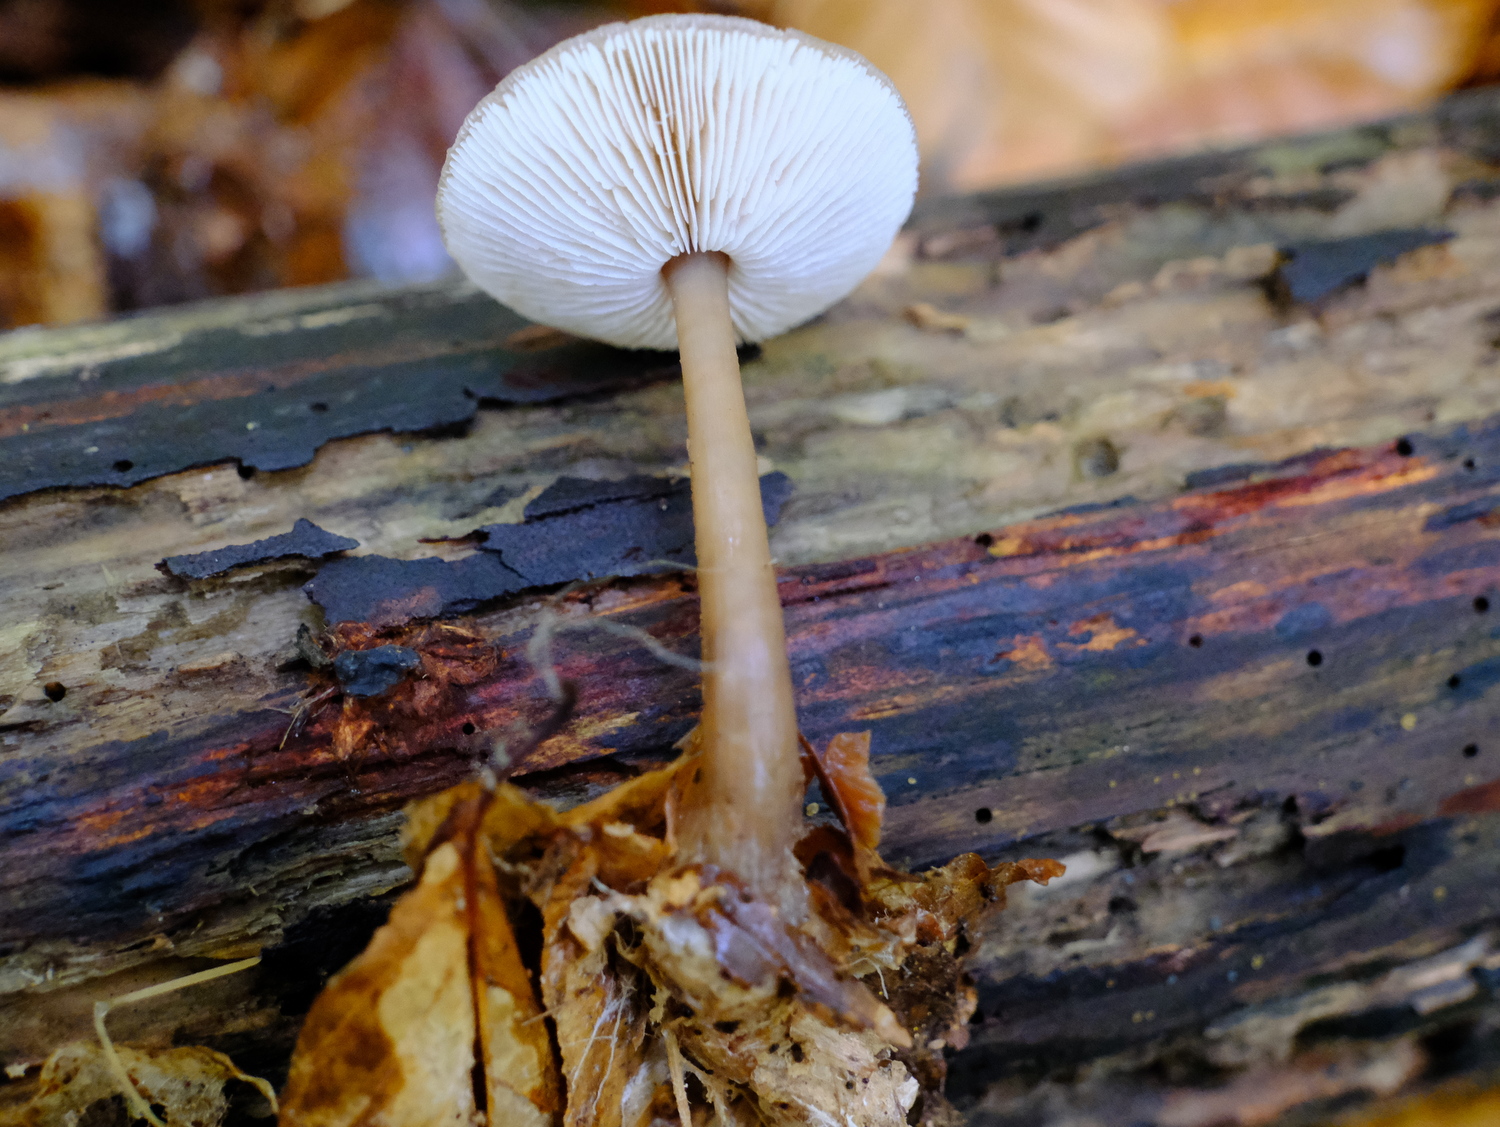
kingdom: Fungi
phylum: Basidiomycota
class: Agaricomycetes
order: Agaricales
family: Omphalotaceae
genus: Rhodocollybia
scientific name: Rhodocollybia asema
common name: horngrå fladhat
